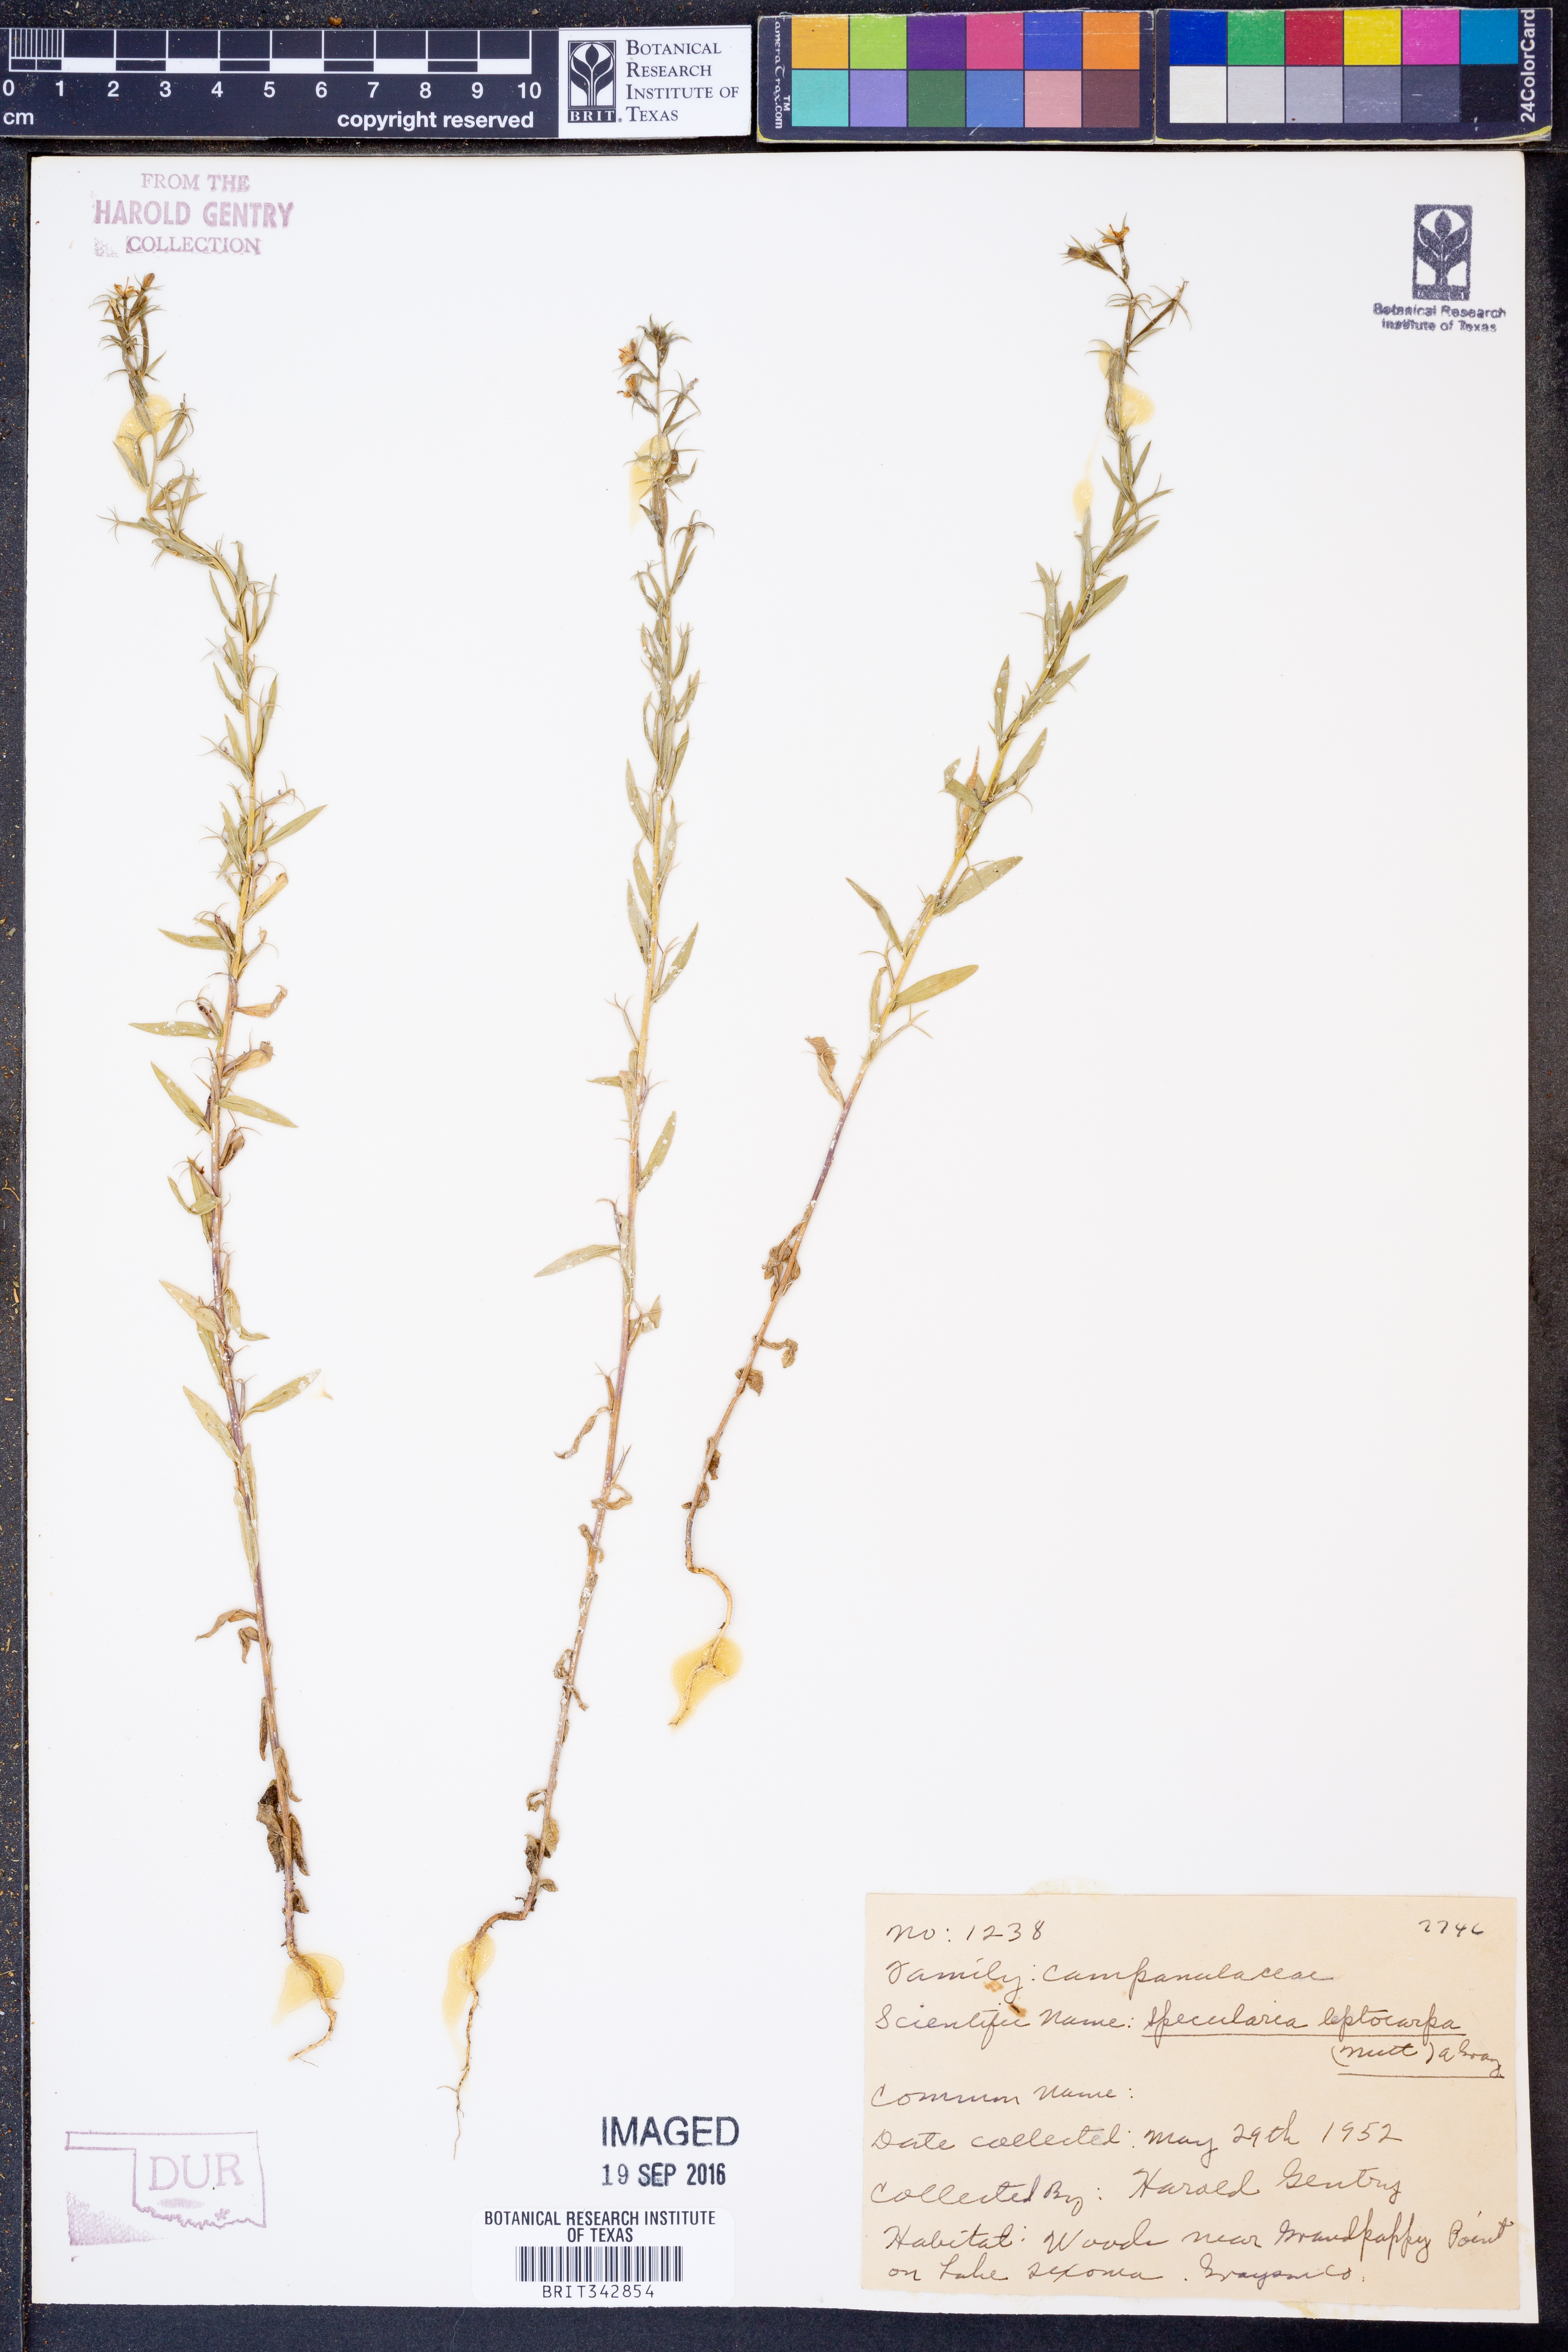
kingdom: Plantae
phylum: Tracheophyta
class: Magnoliopsida
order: Asterales
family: Campanulaceae
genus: Triodanis
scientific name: Triodanis leptocarpa
